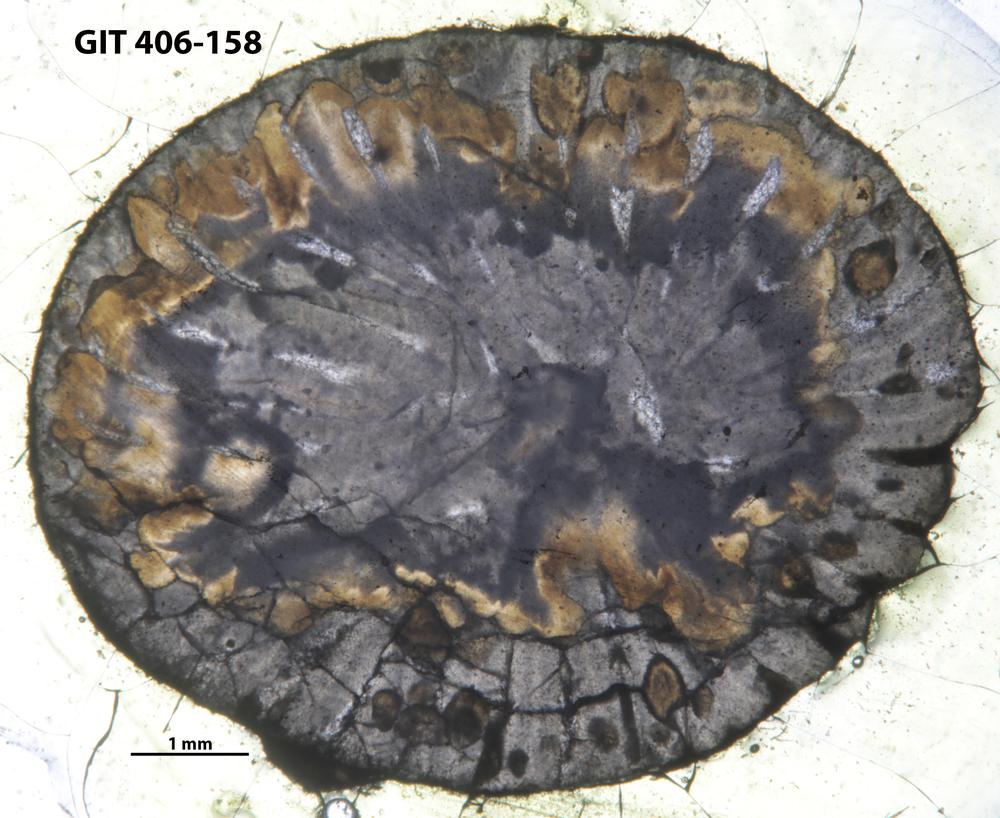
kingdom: Animalia
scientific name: Animalia
